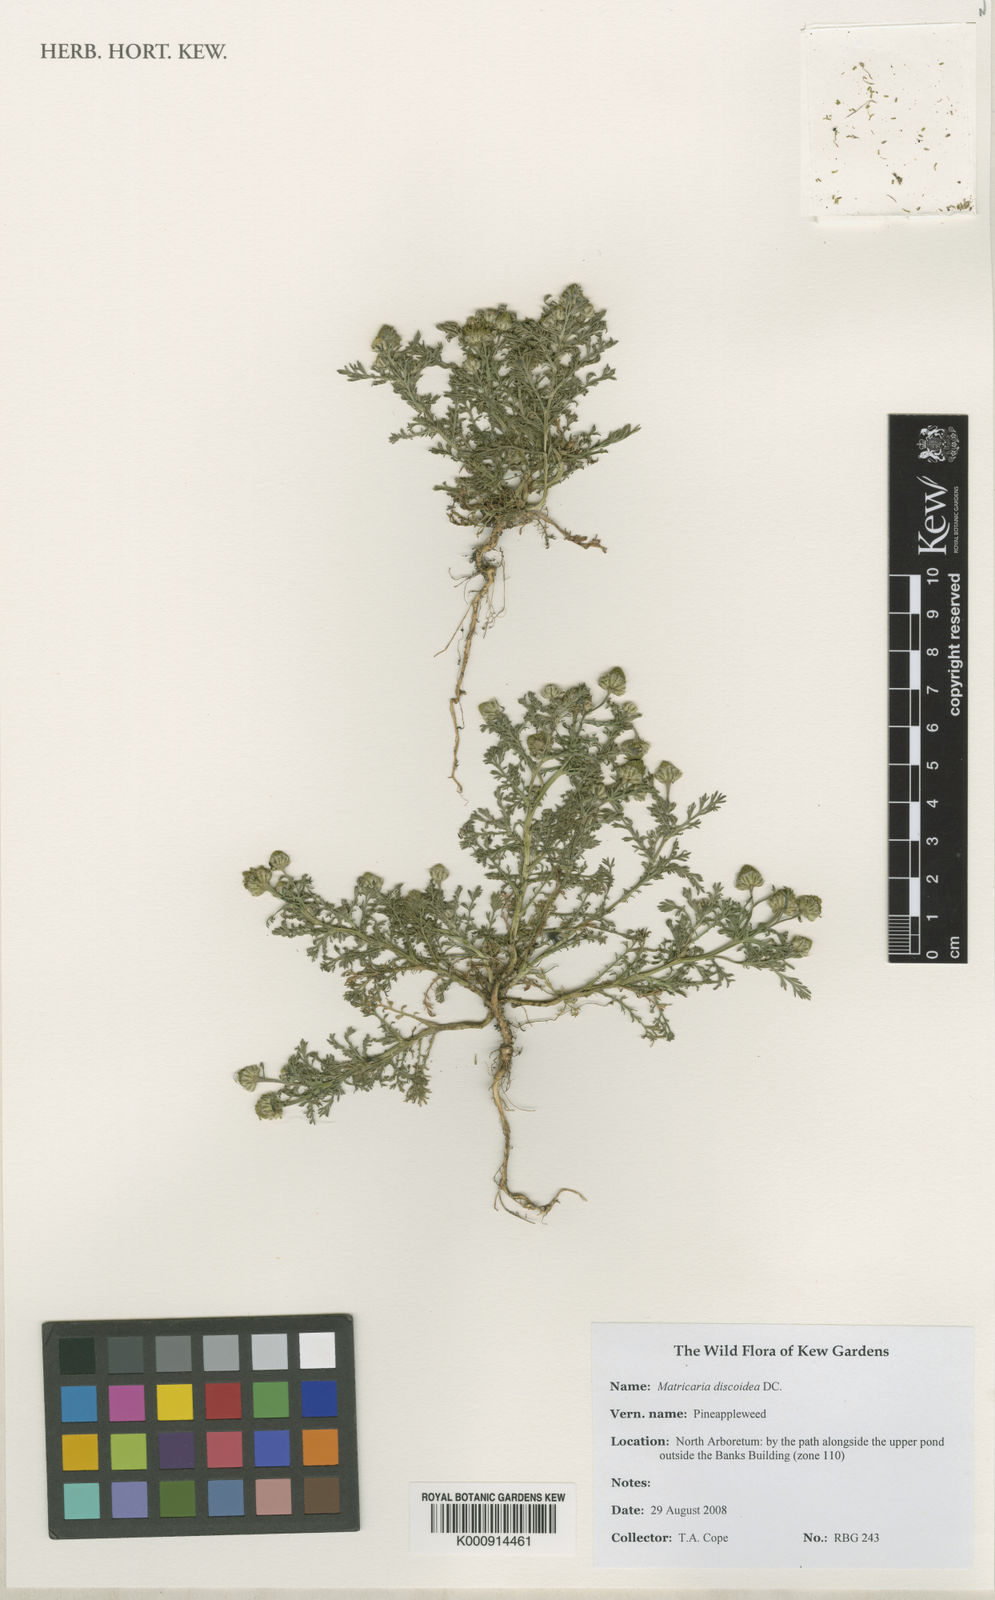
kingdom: Plantae
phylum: Tracheophyta
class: Magnoliopsida
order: Asterales
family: Asteraceae
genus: Matricaria
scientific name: Matricaria discoidea
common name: Disc mayweed
